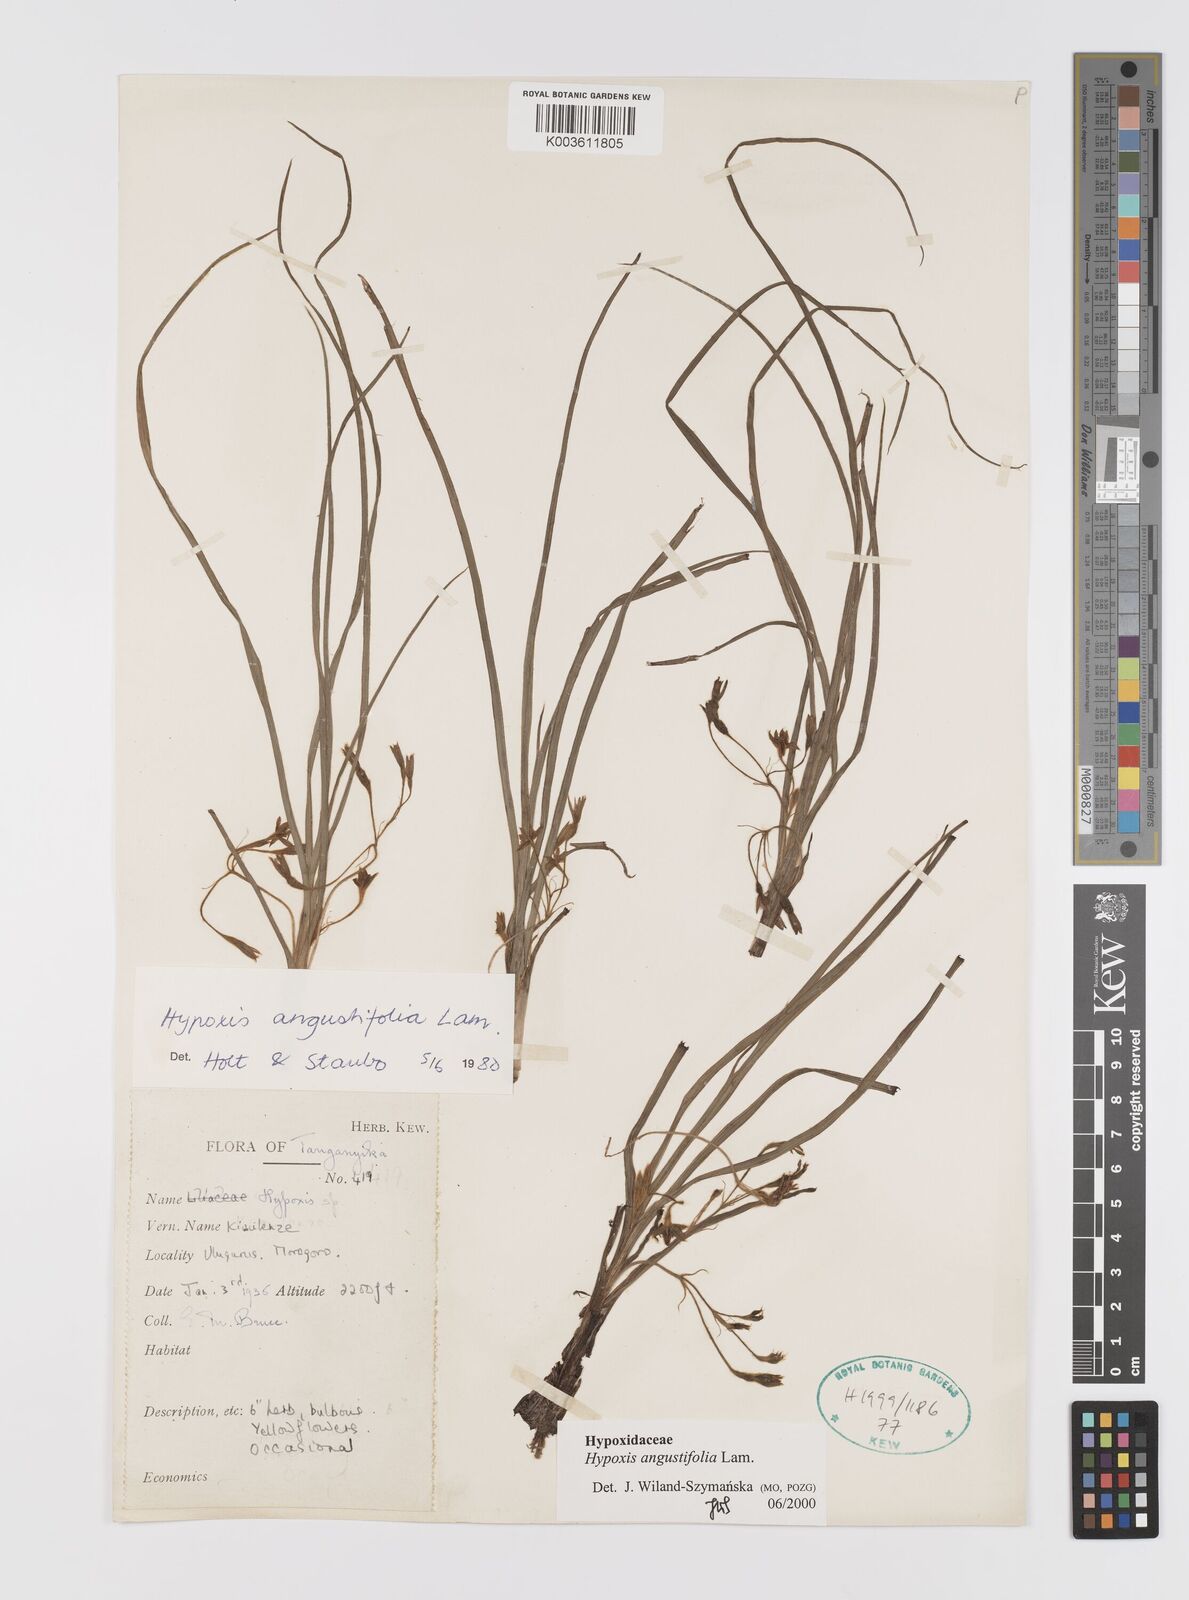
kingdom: Plantae
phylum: Tracheophyta
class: Liliopsida
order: Asparagales
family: Hypoxidaceae
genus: Hypoxis
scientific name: Hypoxis angustifolia
